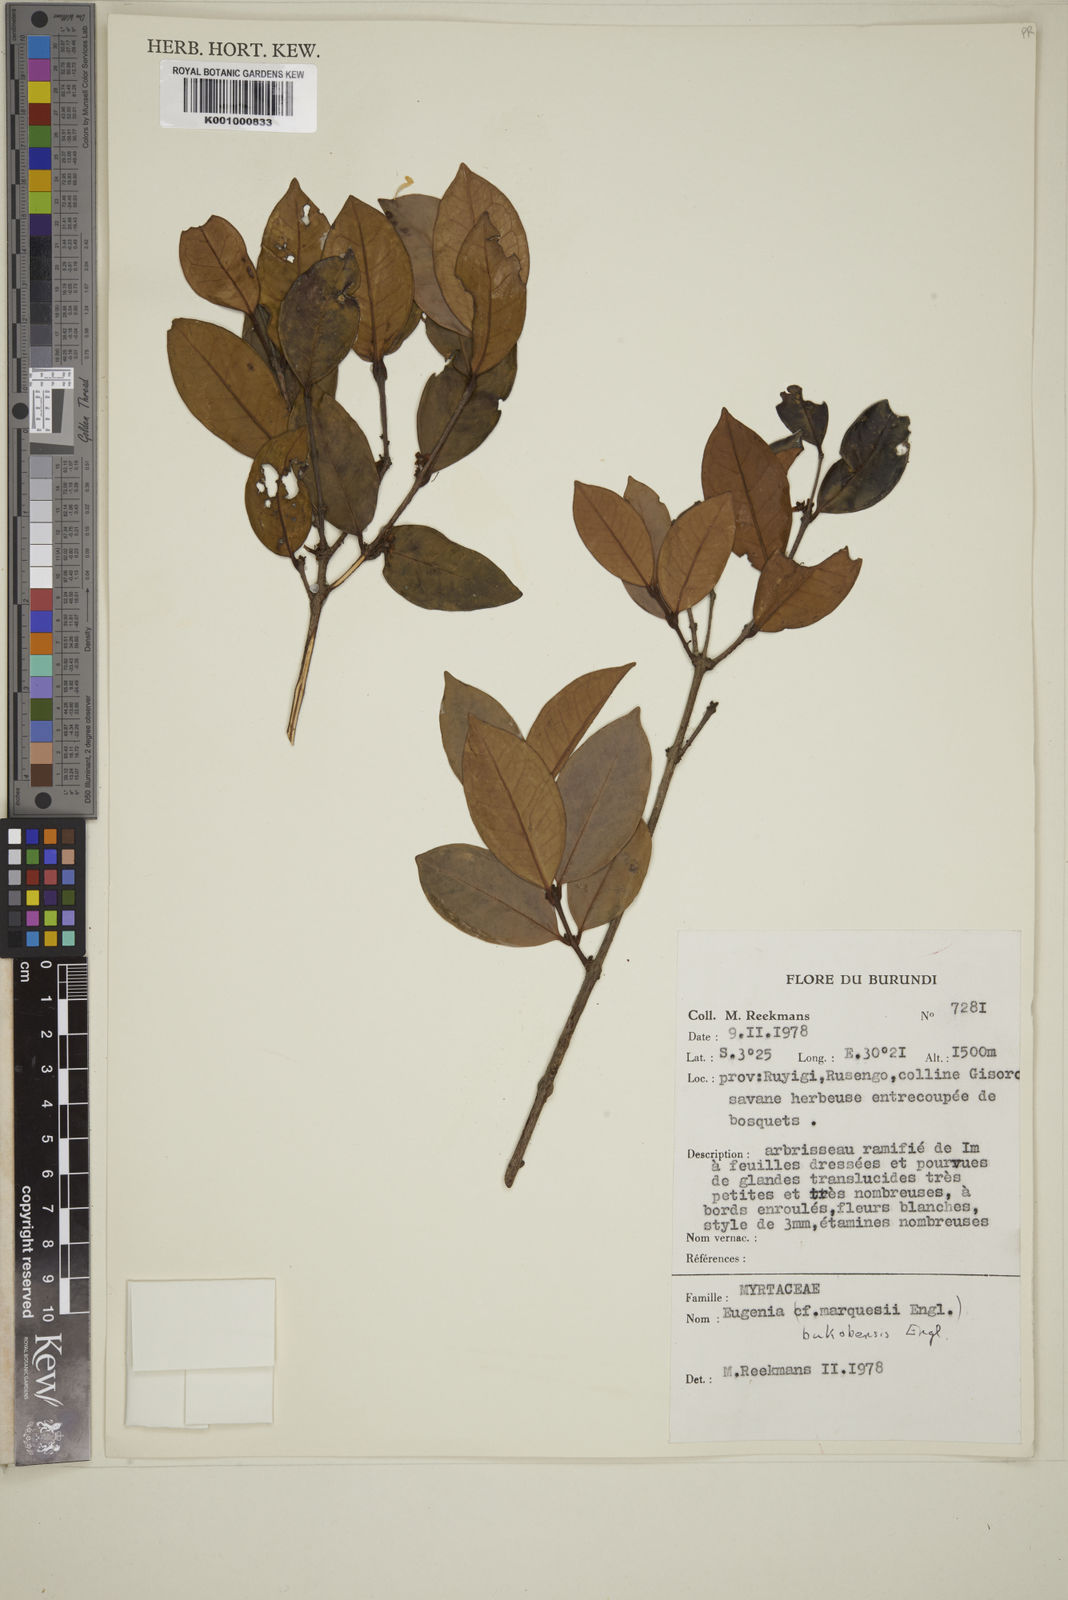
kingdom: Plantae
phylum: Tracheophyta
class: Magnoliopsida
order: Myrtales
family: Myrtaceae
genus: Eugenia
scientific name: Eugenia bukobensis
